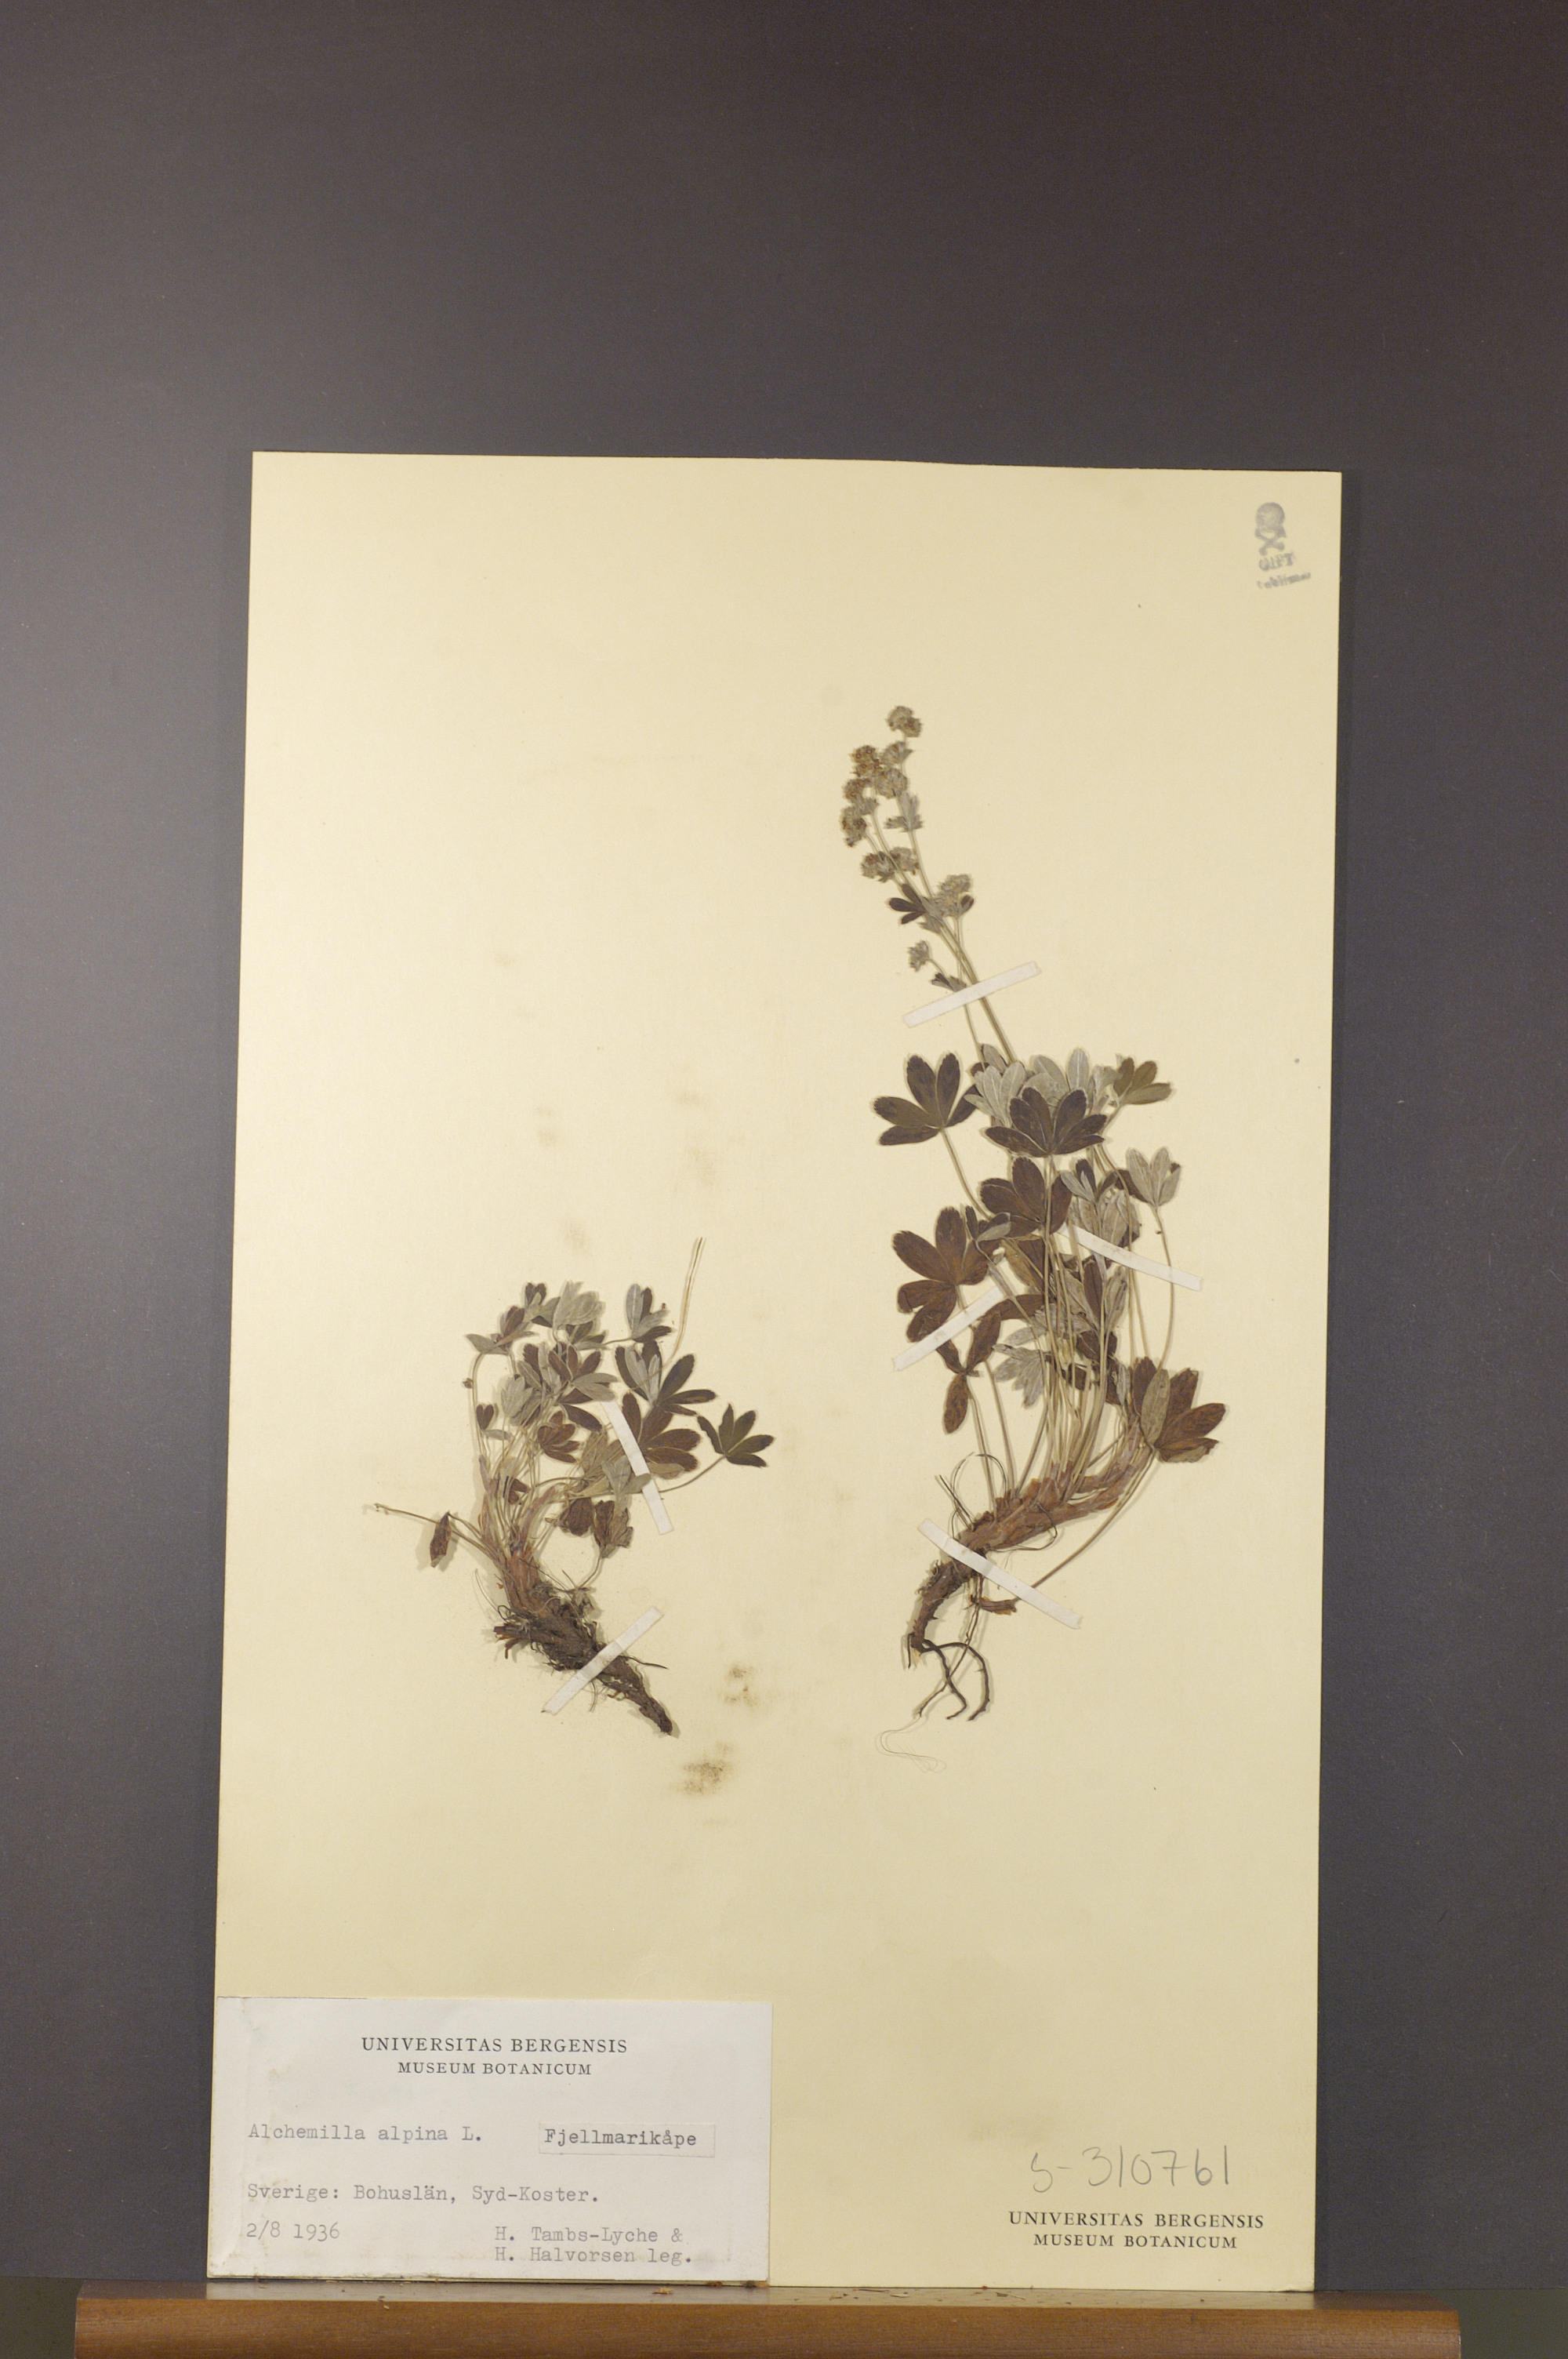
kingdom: Plantae
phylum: Tracheophyta
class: Magnoliopsida
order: Rosales
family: Rosaceae
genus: Alchemilla
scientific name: Alchemilla alpina
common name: Alpine lady's-mantle
